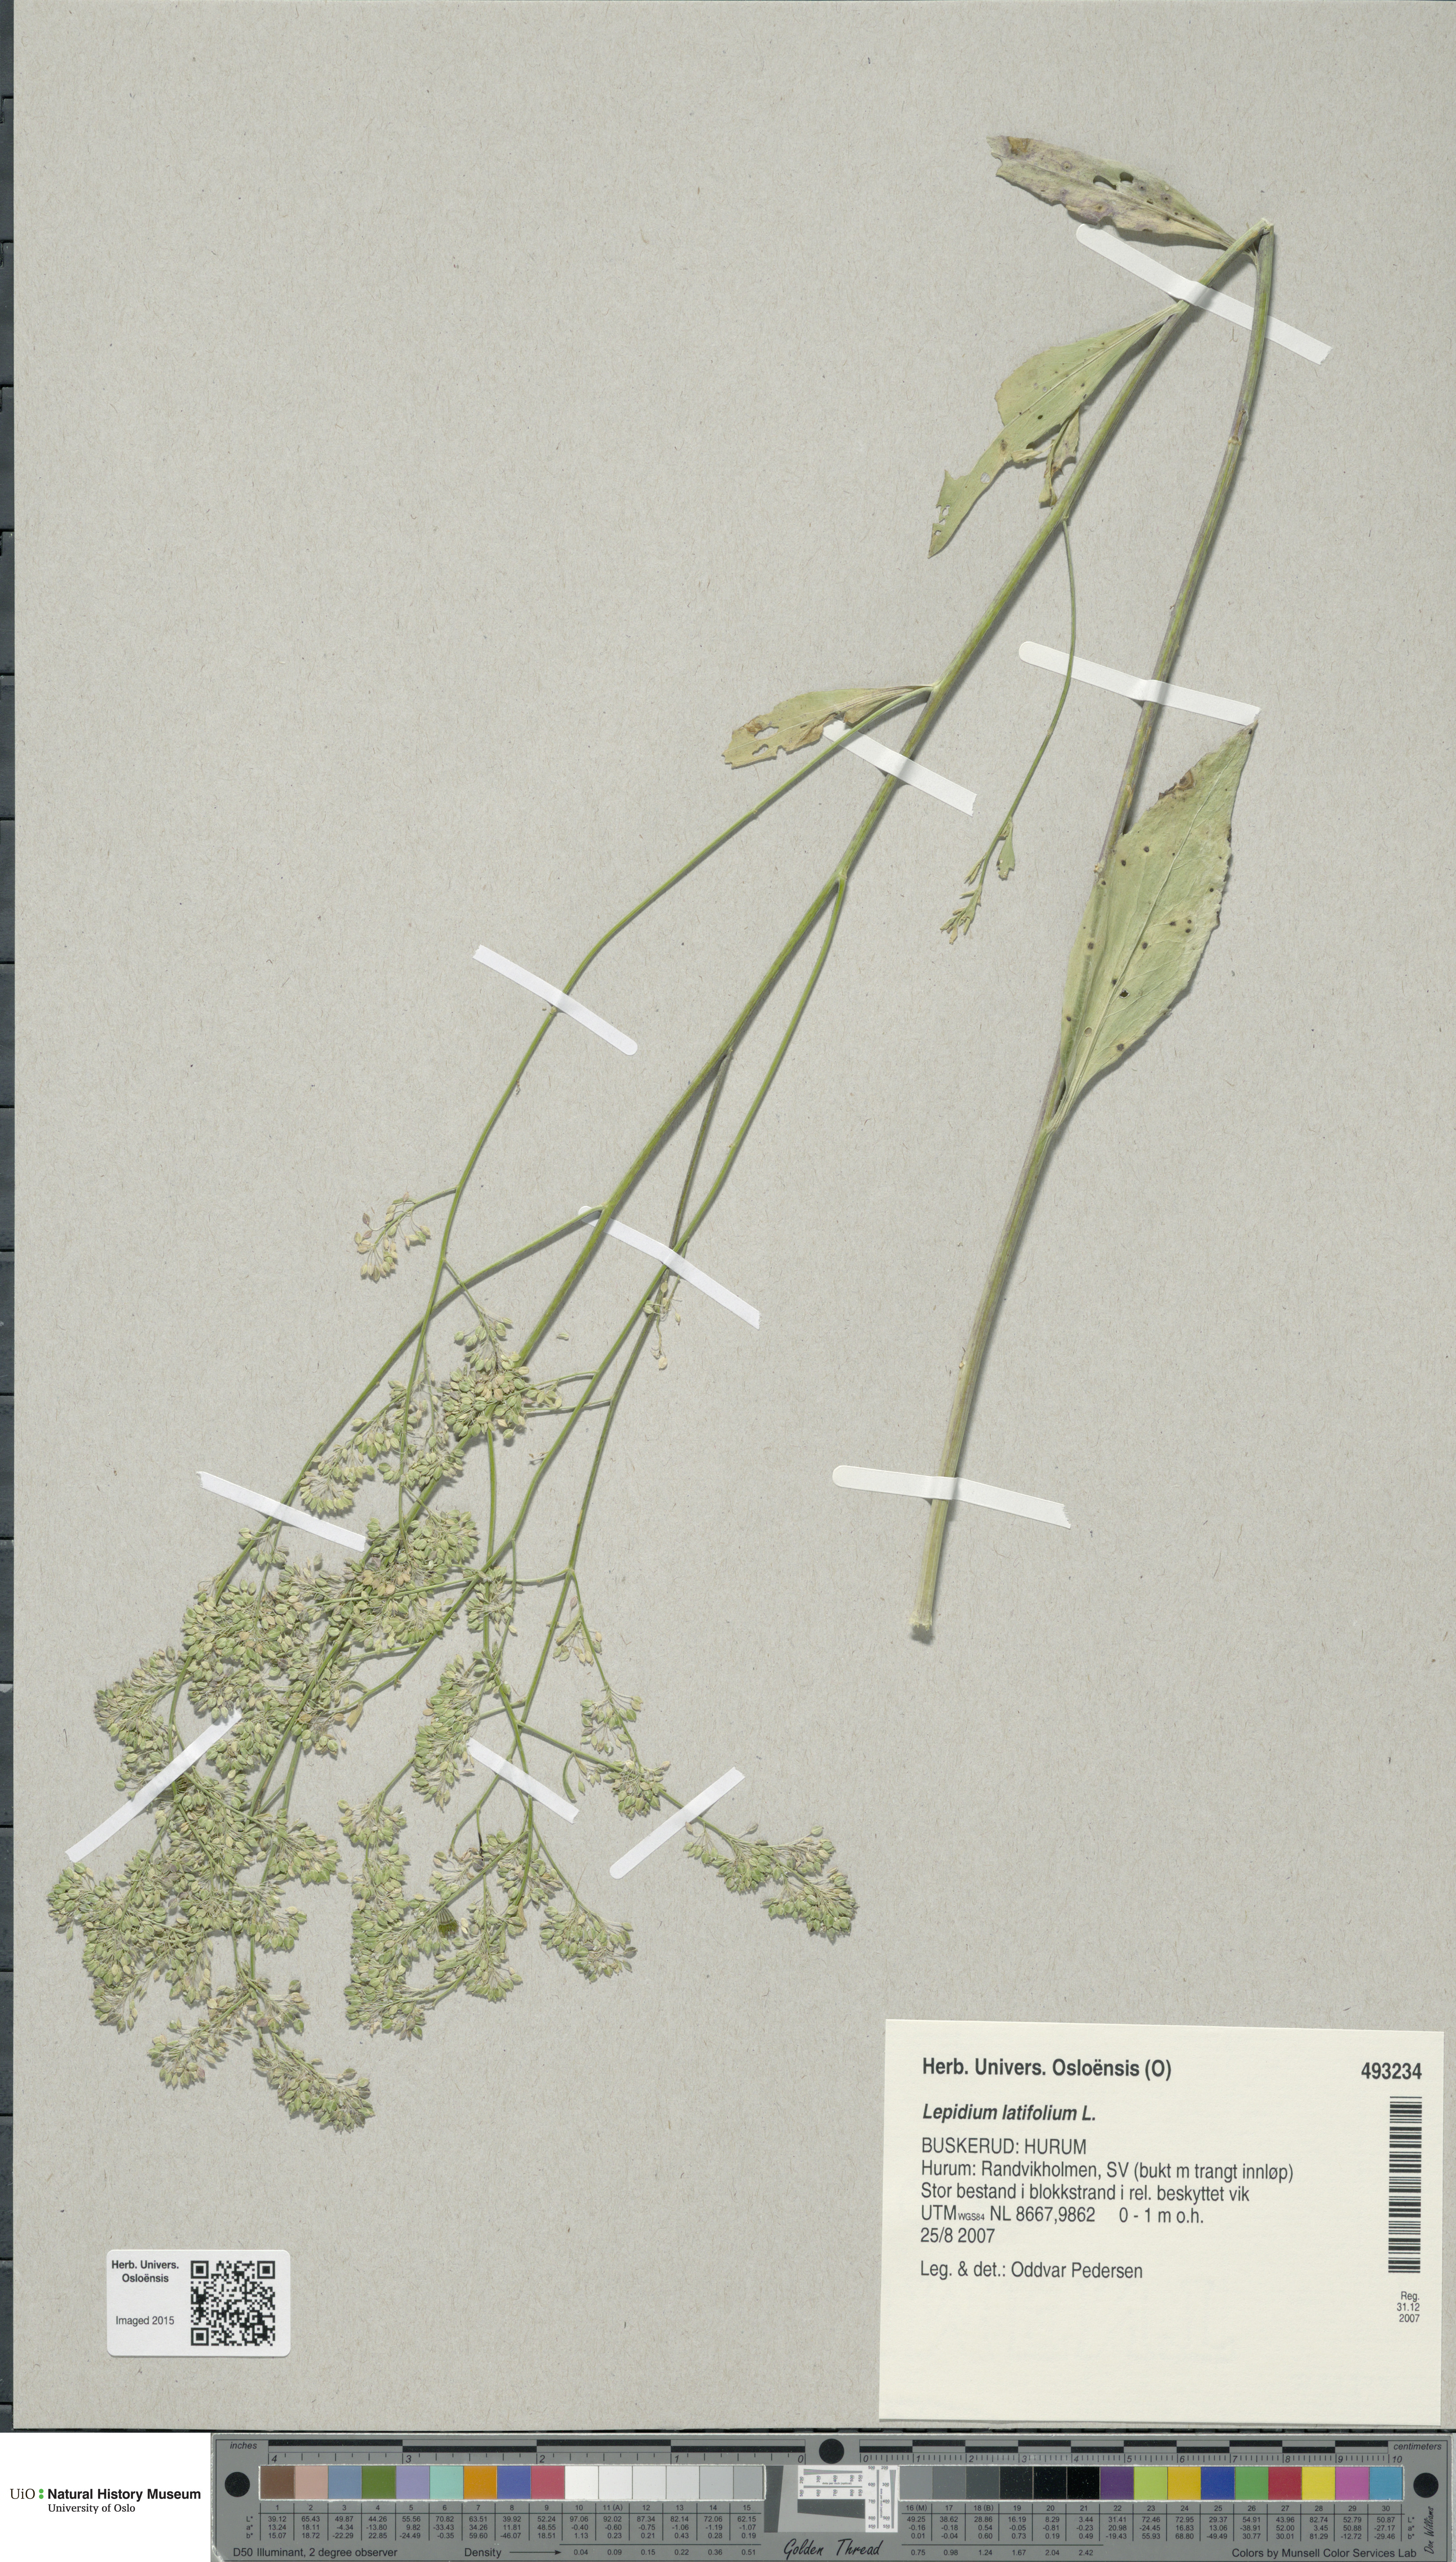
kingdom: Plantae
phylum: Tracheophyta
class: Magnoliopsida
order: Brassicales
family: Brassicaceae
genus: Lepidium
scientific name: Lepidium latifolium
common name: Dittander
